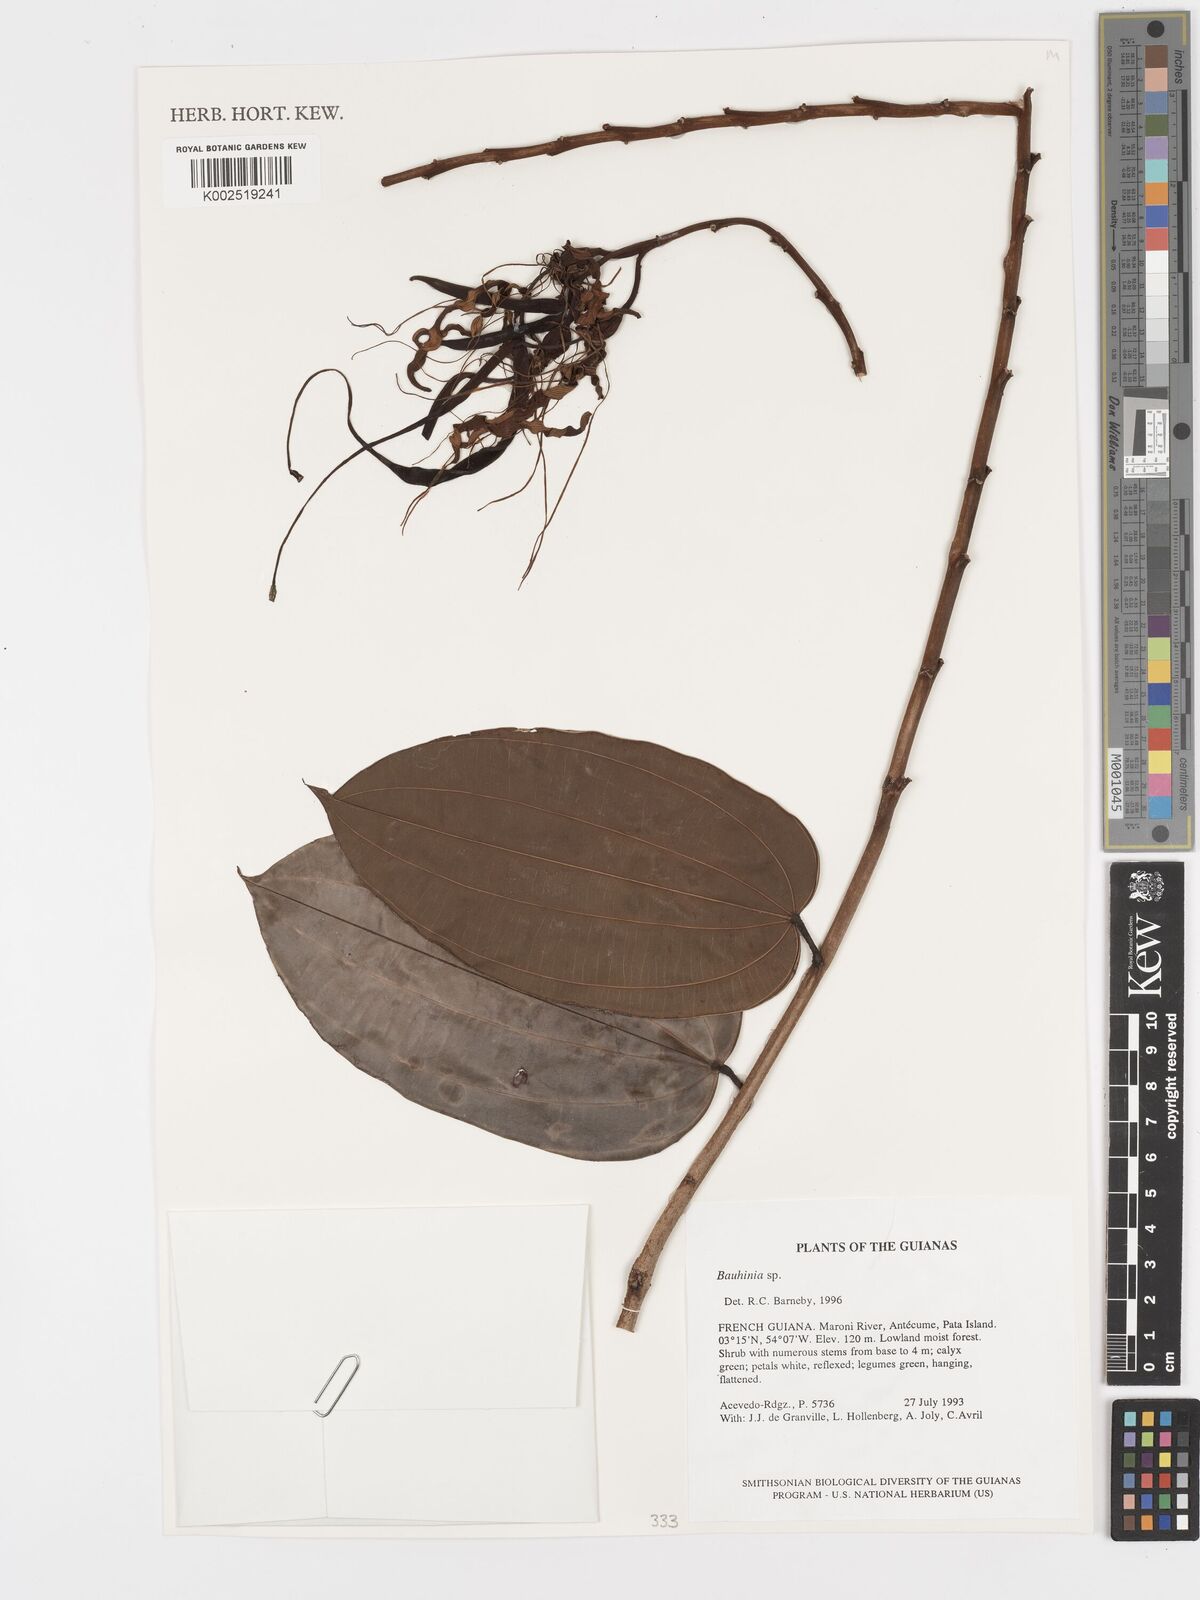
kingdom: Plantae
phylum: Tracheophyta
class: Magnoliopsida
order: Fabales
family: Fabaceae
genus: Bauhinia
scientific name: Bauhinia
